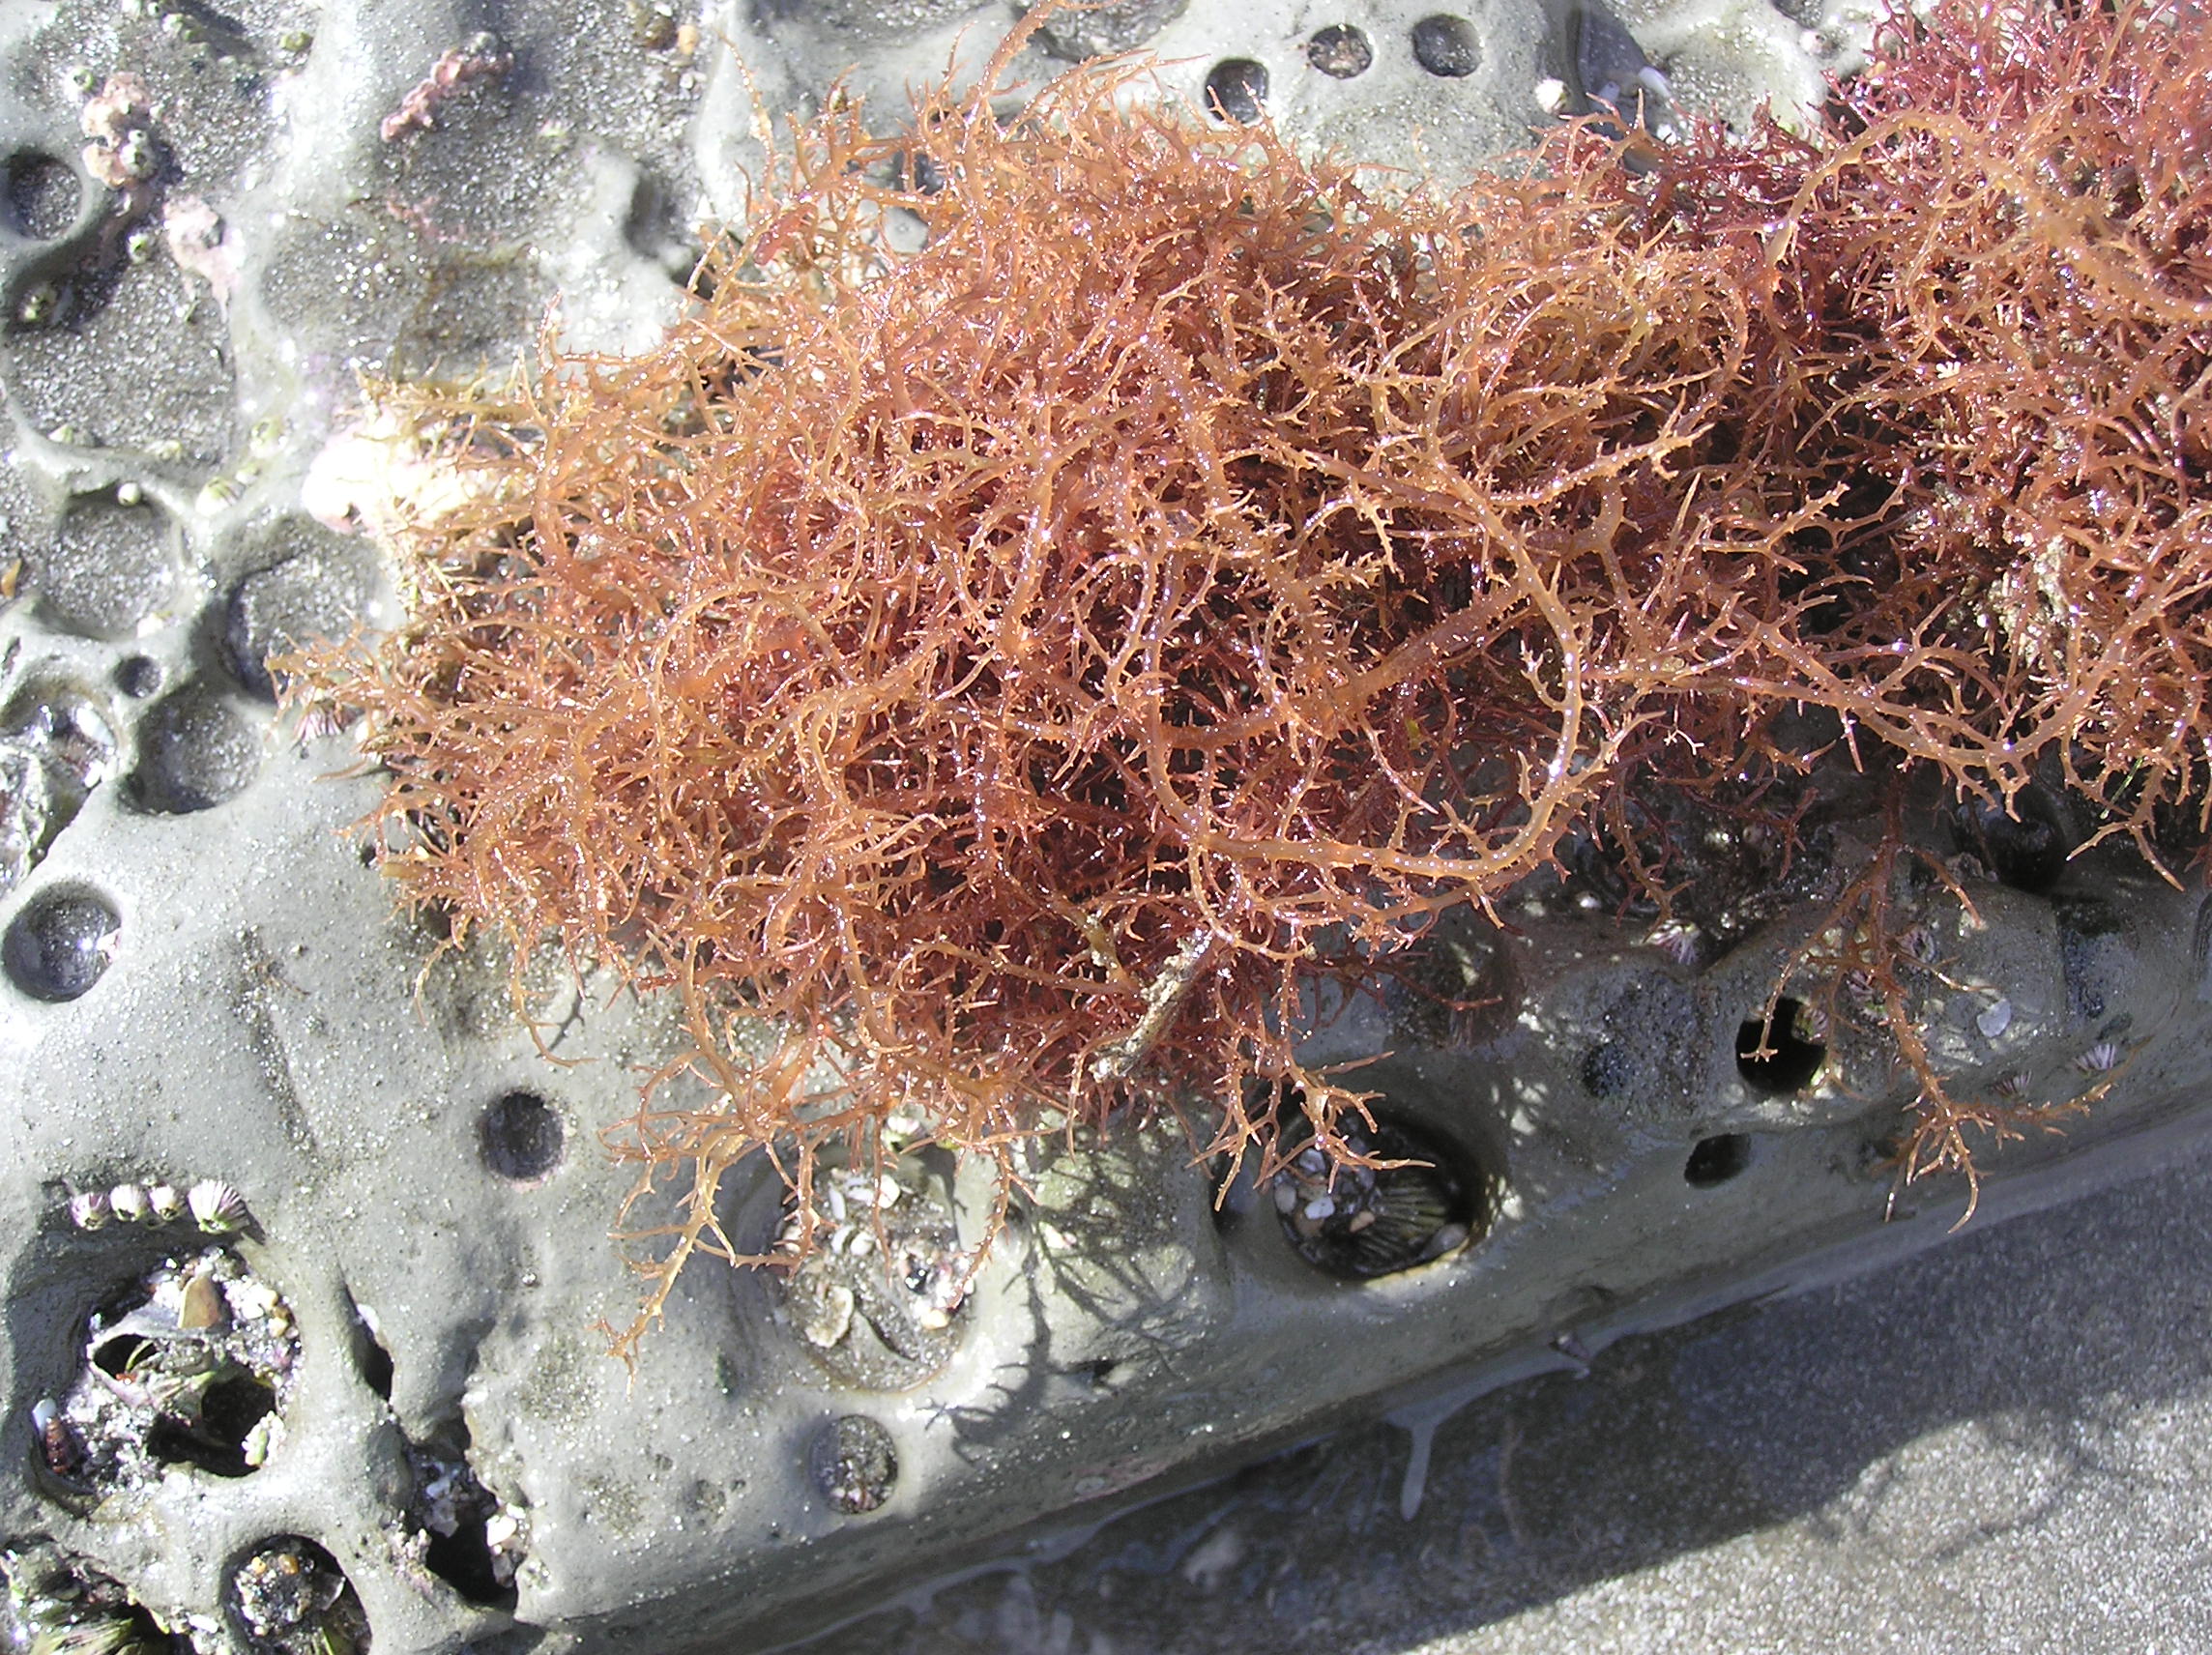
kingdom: Plantae
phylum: Rhodophyta
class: Florideophyceae
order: Gigartinales
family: Hypneaceae
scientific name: Hypneaceae
